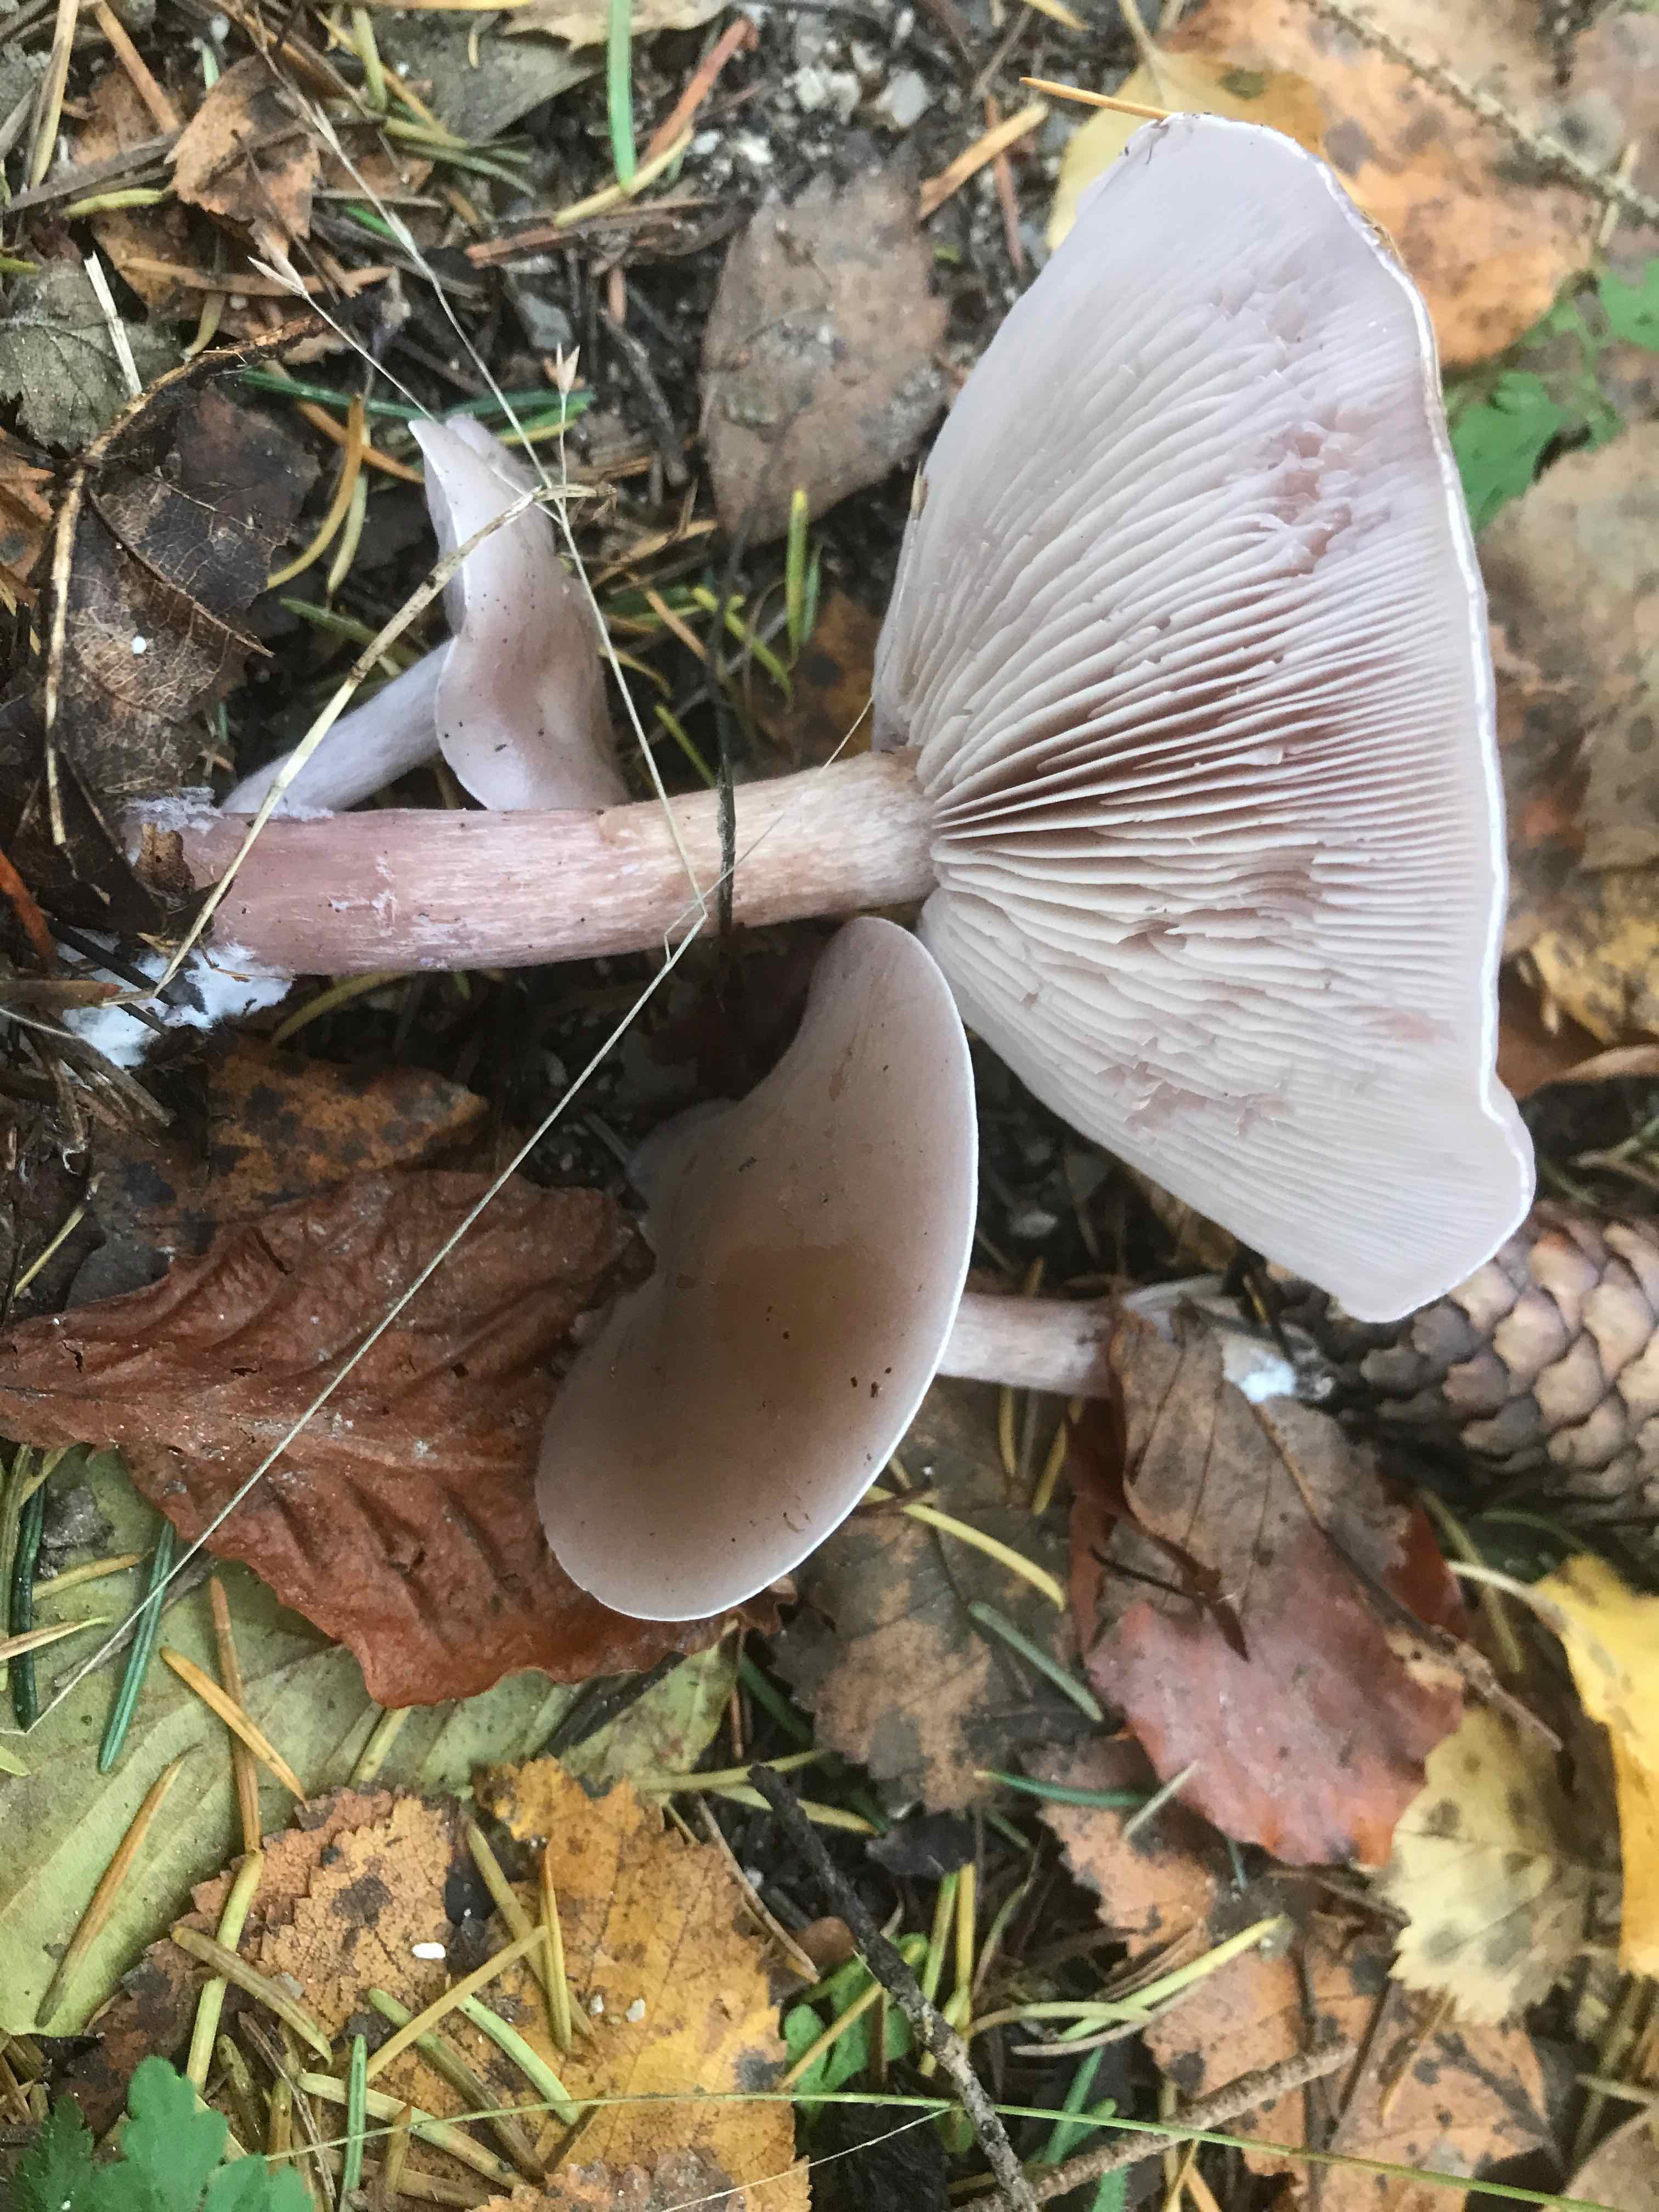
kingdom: Fungi
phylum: Basidiomycota
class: Agaricomycetes
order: Agaricales
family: Tricholomataceae
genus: Lepista
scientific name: Lepista sordida
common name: spinkel hekseringshat
